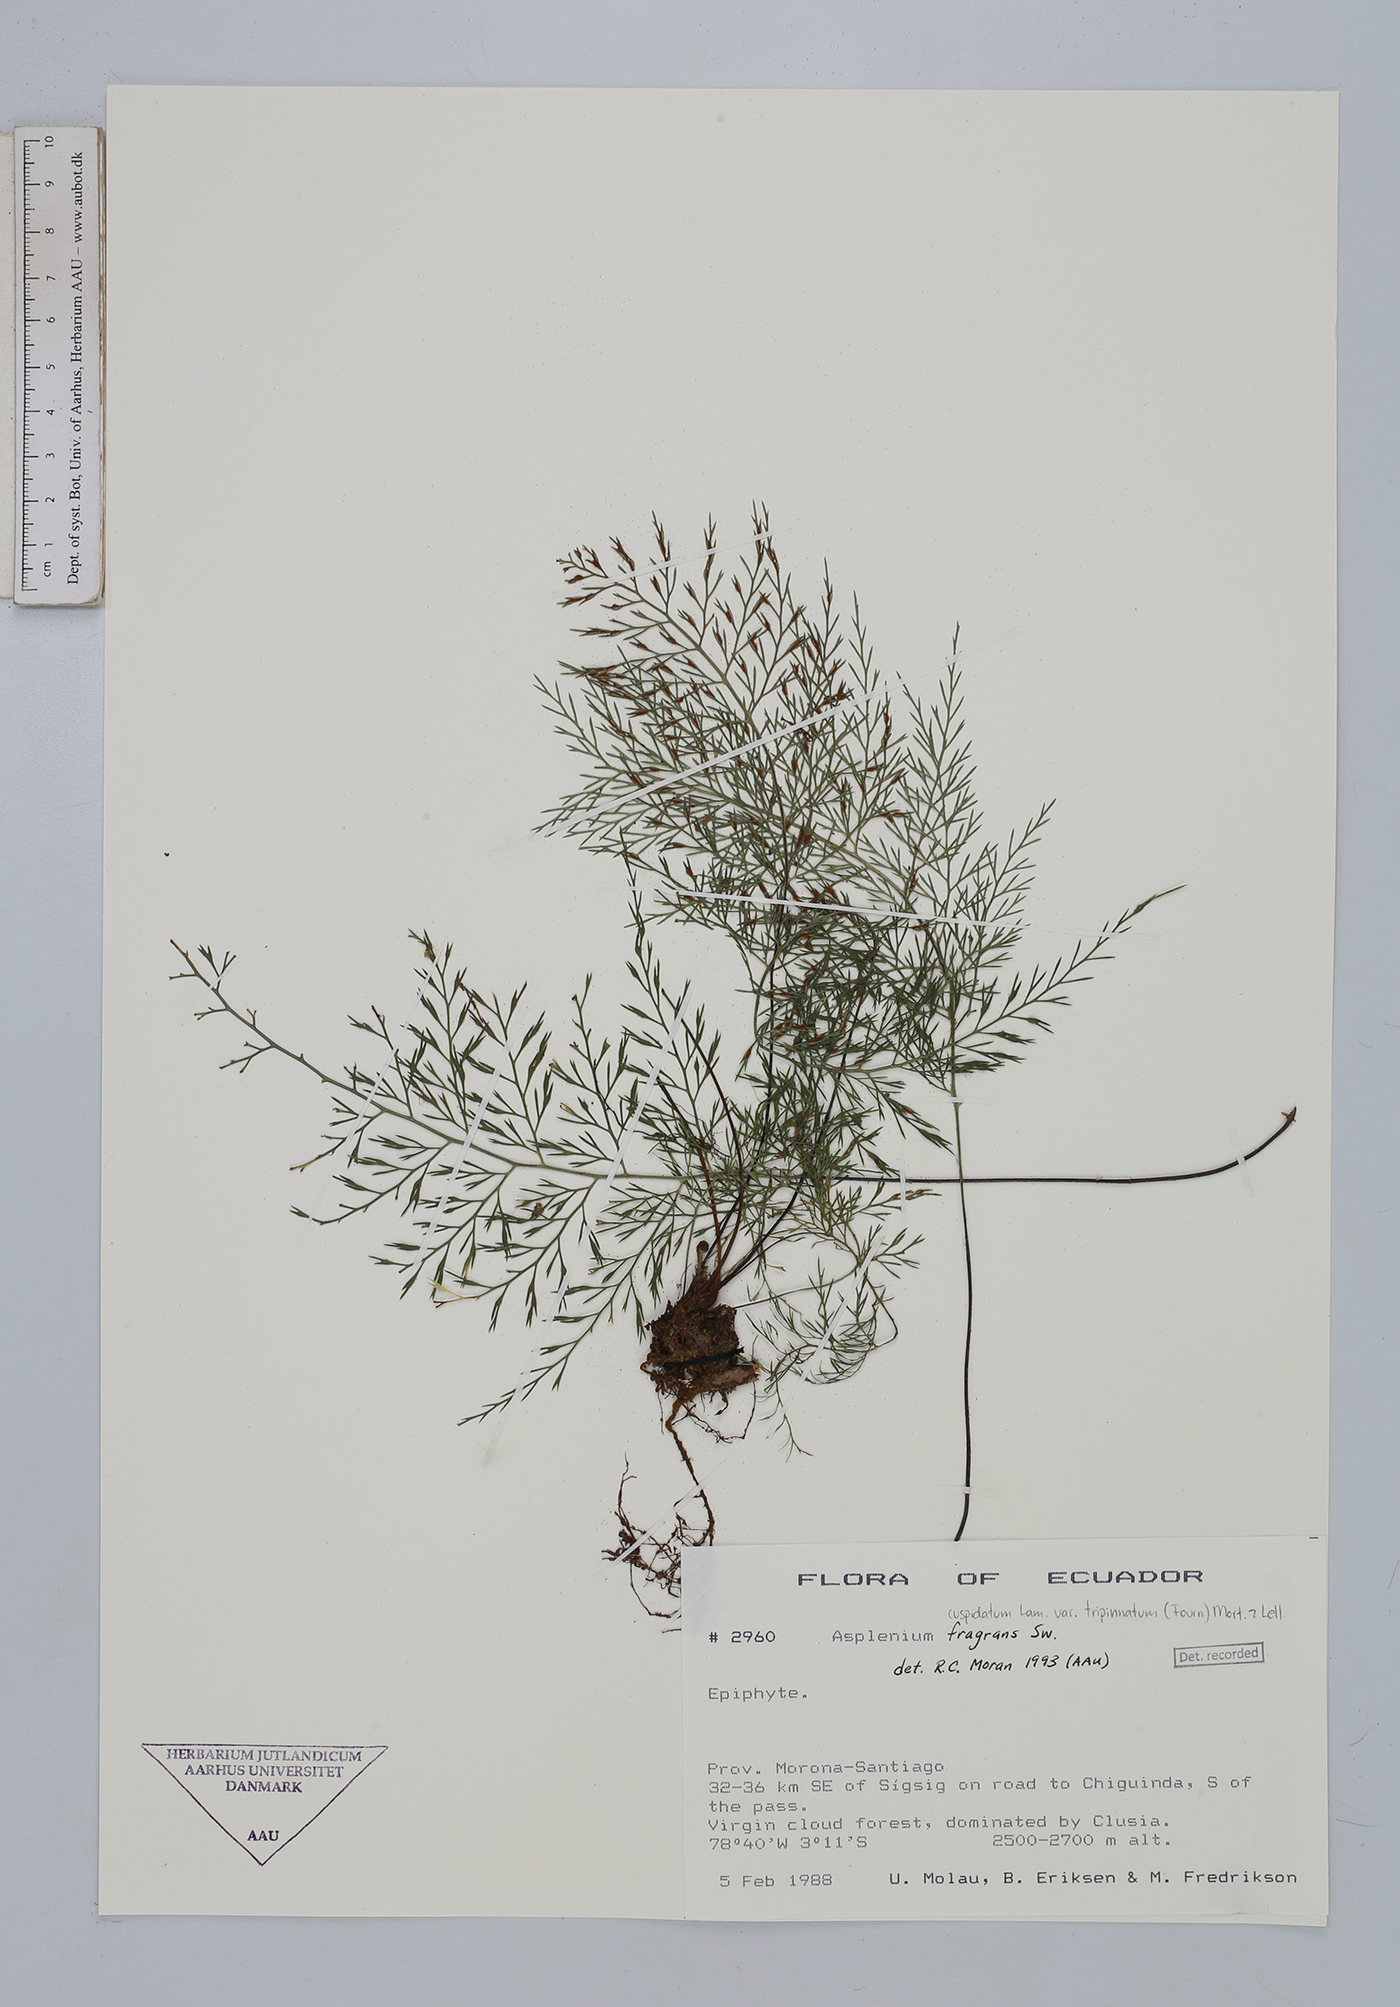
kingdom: Plantae
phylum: Tracheophyta
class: Polypodiopsida
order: Polypodiales
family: Aspleniaceae
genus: Asplenium
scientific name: Asplenium fragrans
